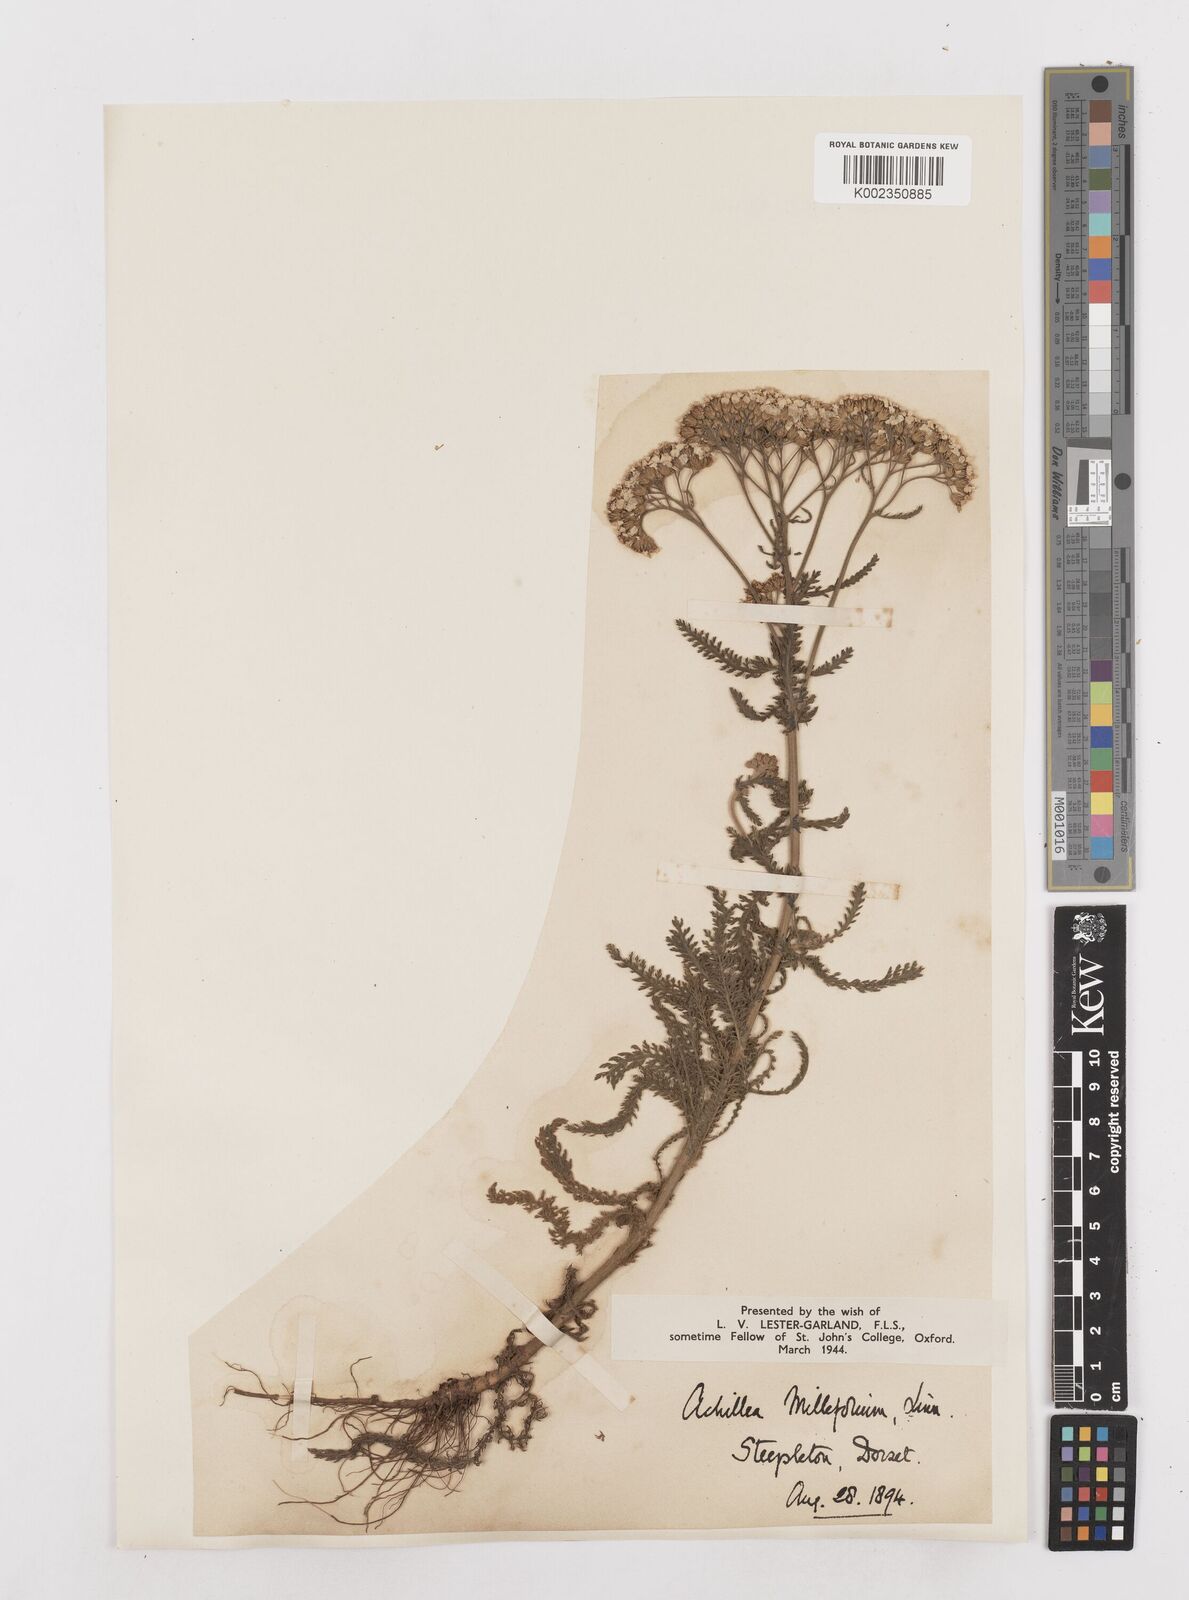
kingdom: Plantae
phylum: Tracheophyta
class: Magnoliopsida
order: Asterales
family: Asteraceae
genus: Achillea
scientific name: Achillea millefolium
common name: Yarrow
